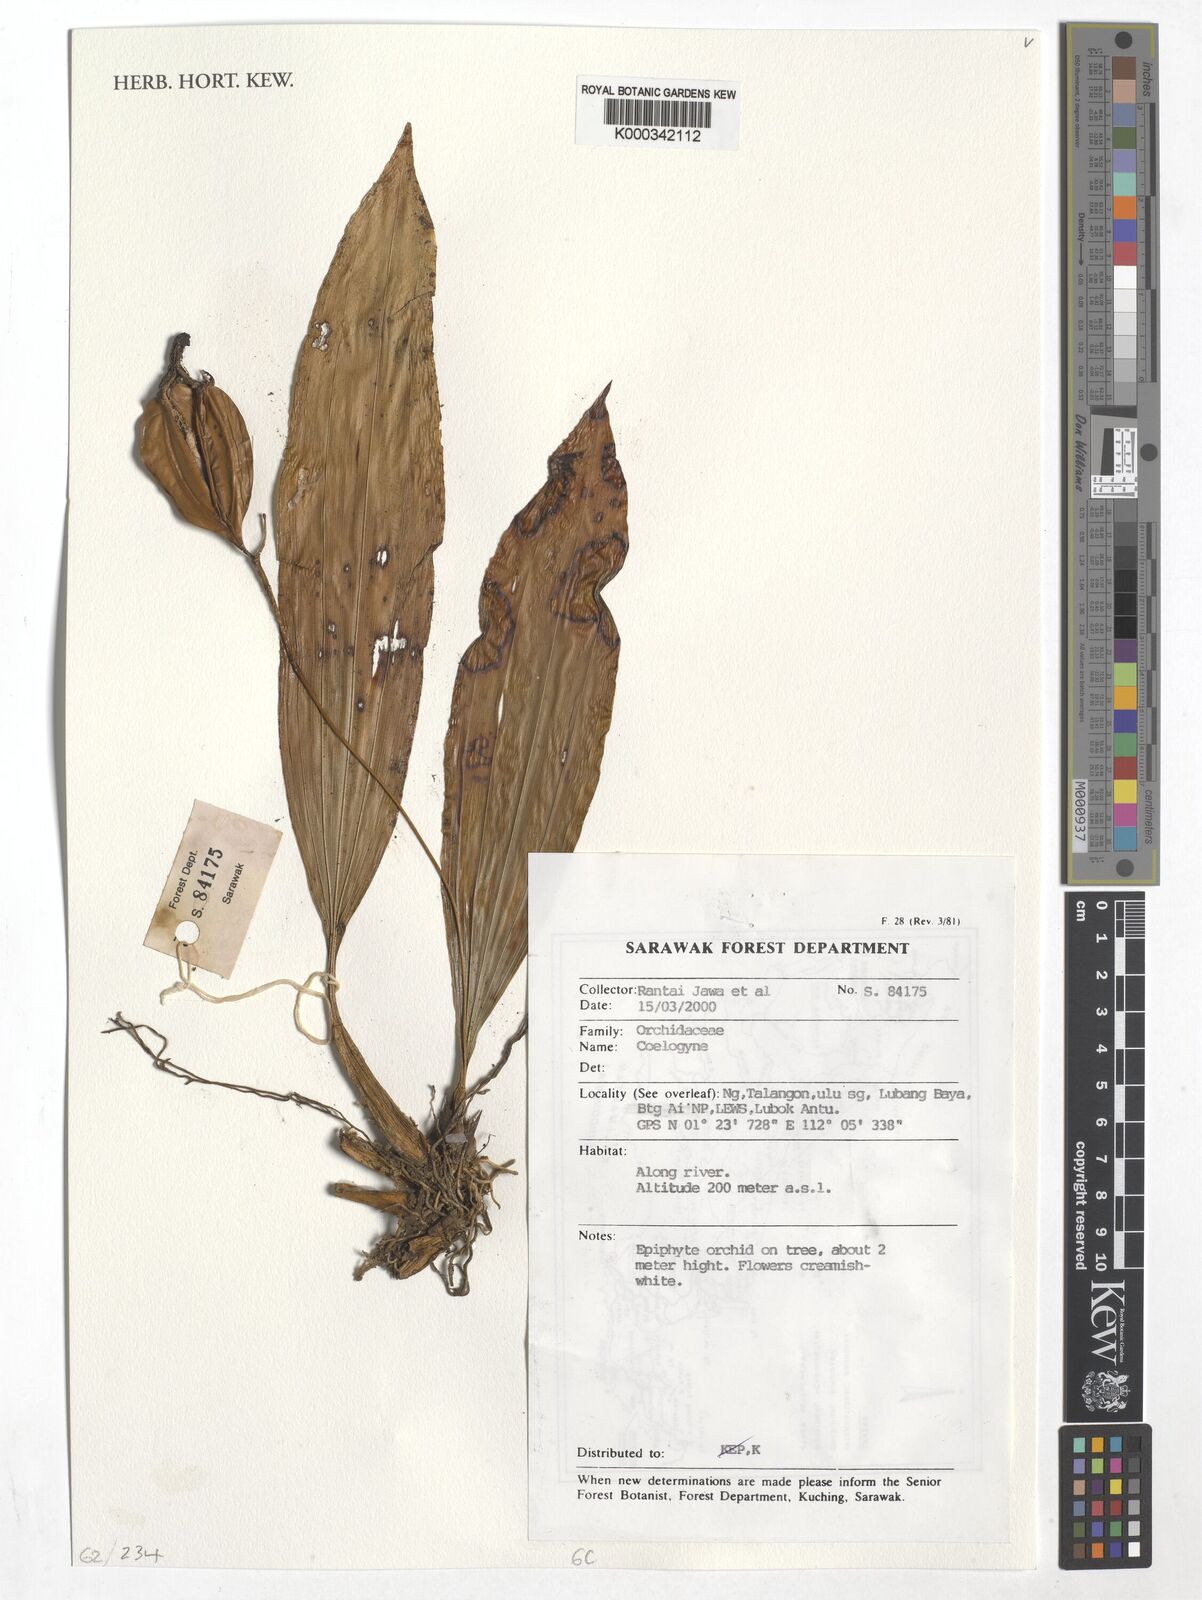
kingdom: Plantae
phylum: Tracheophyta
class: Liliopsida
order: Asparagales
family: Orchidaceae
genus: Coelogyne
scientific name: Coelogyne
